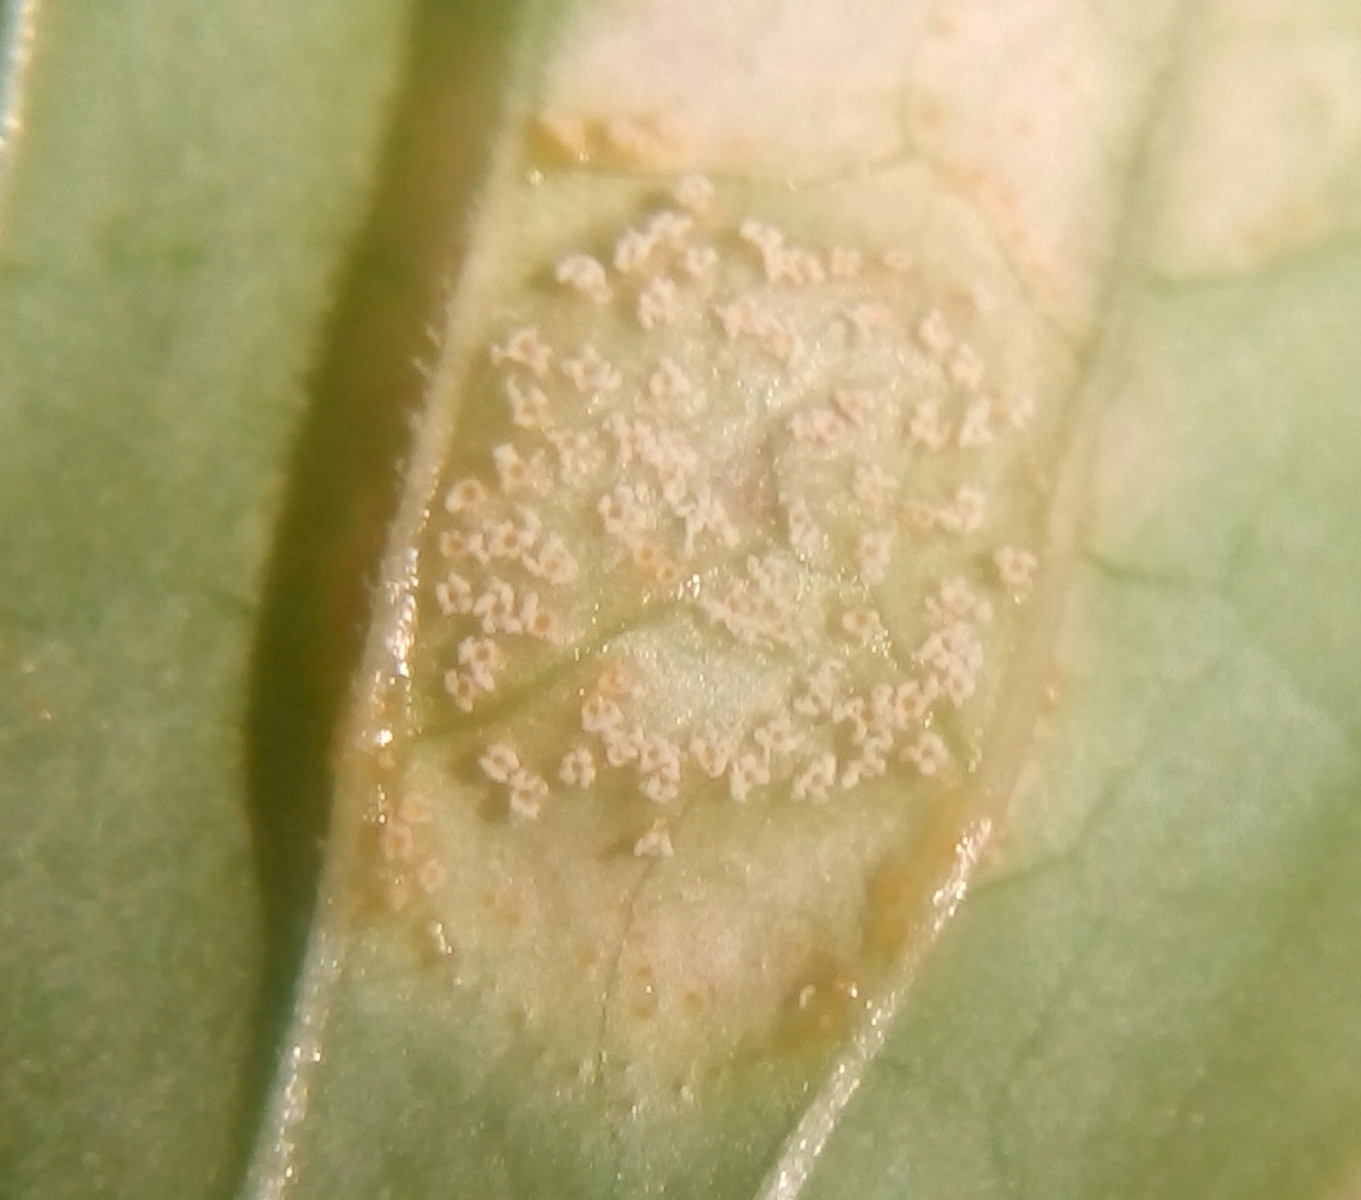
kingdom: Fungi
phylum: Basidiomycota
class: Pucciniomycetes
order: Pucciniales
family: Pucciniaceae
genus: Puccinia
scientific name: Puccinia circaeae-caricis
